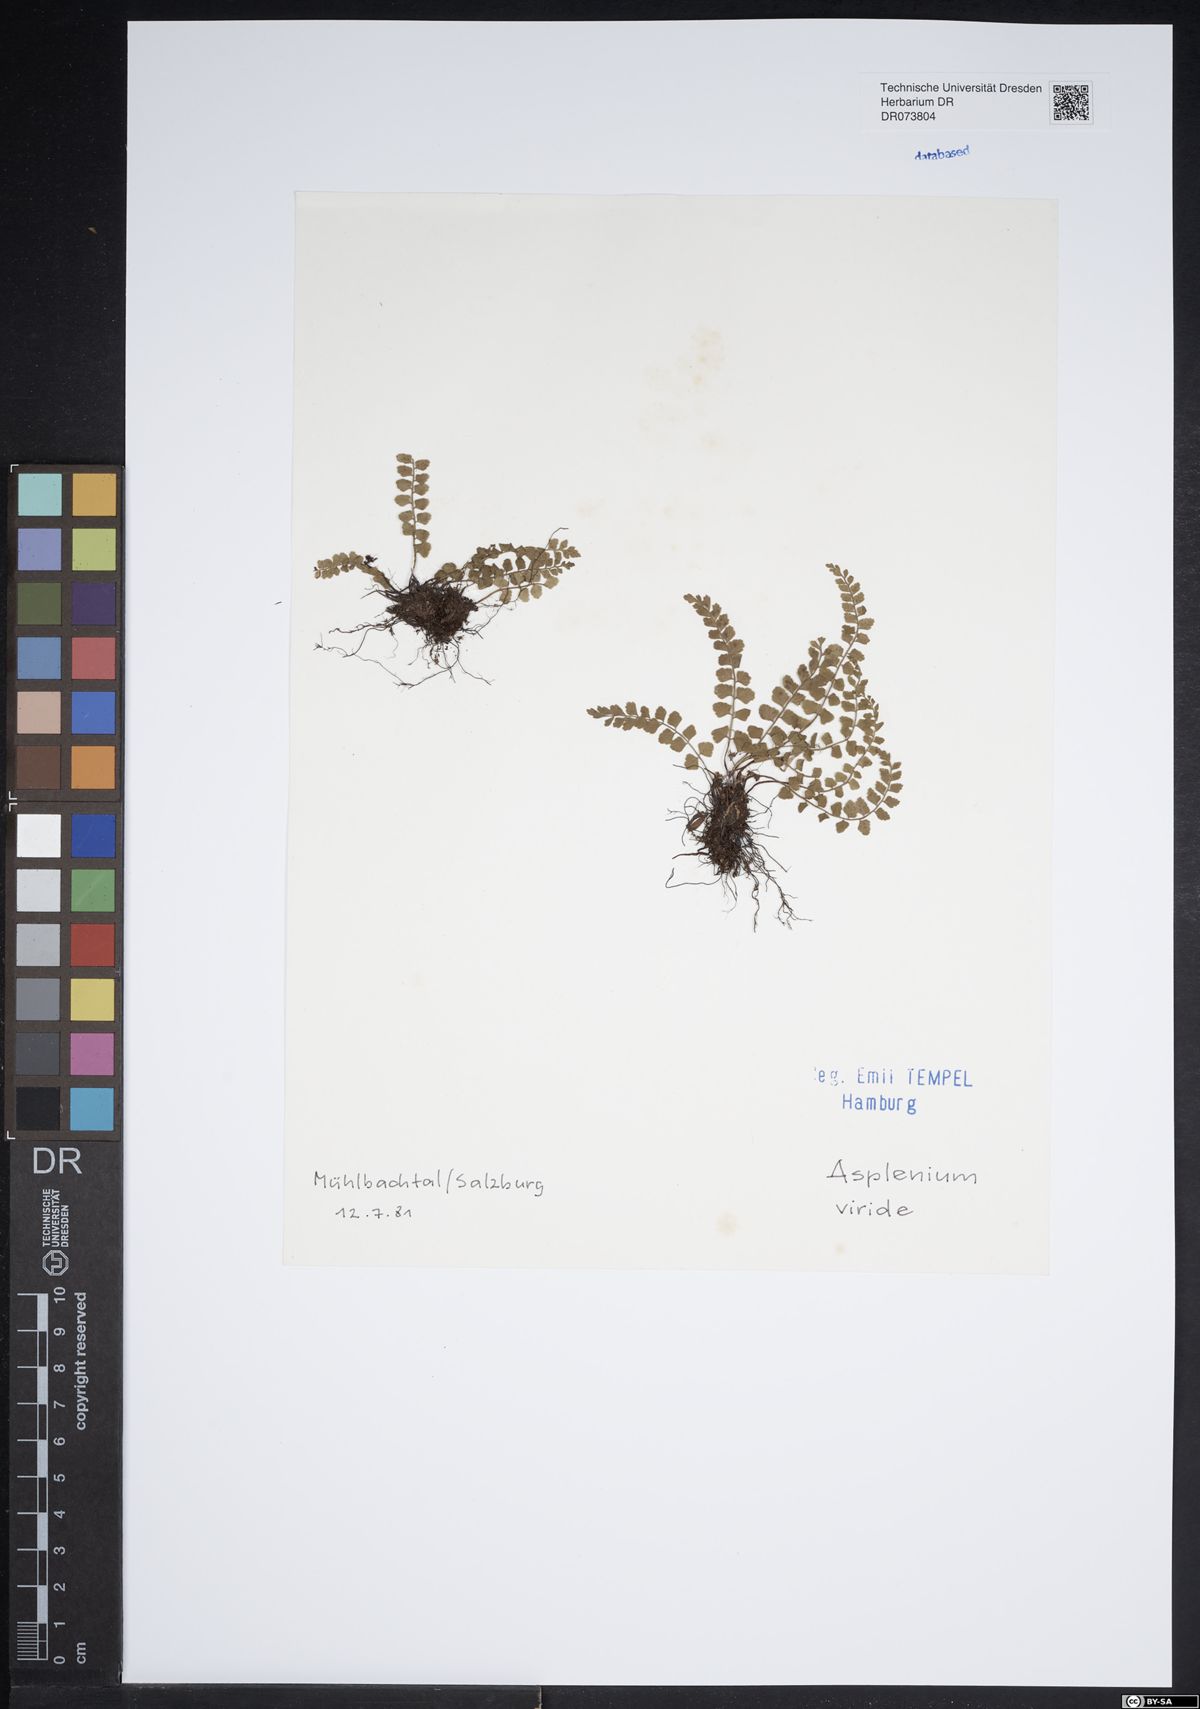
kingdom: Plantae
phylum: Tracheophyta
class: Polypodiopsida
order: Polypodiales
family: Aspleniaceae
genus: Asplenium
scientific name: Asplenium viride
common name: Green spleenwort
